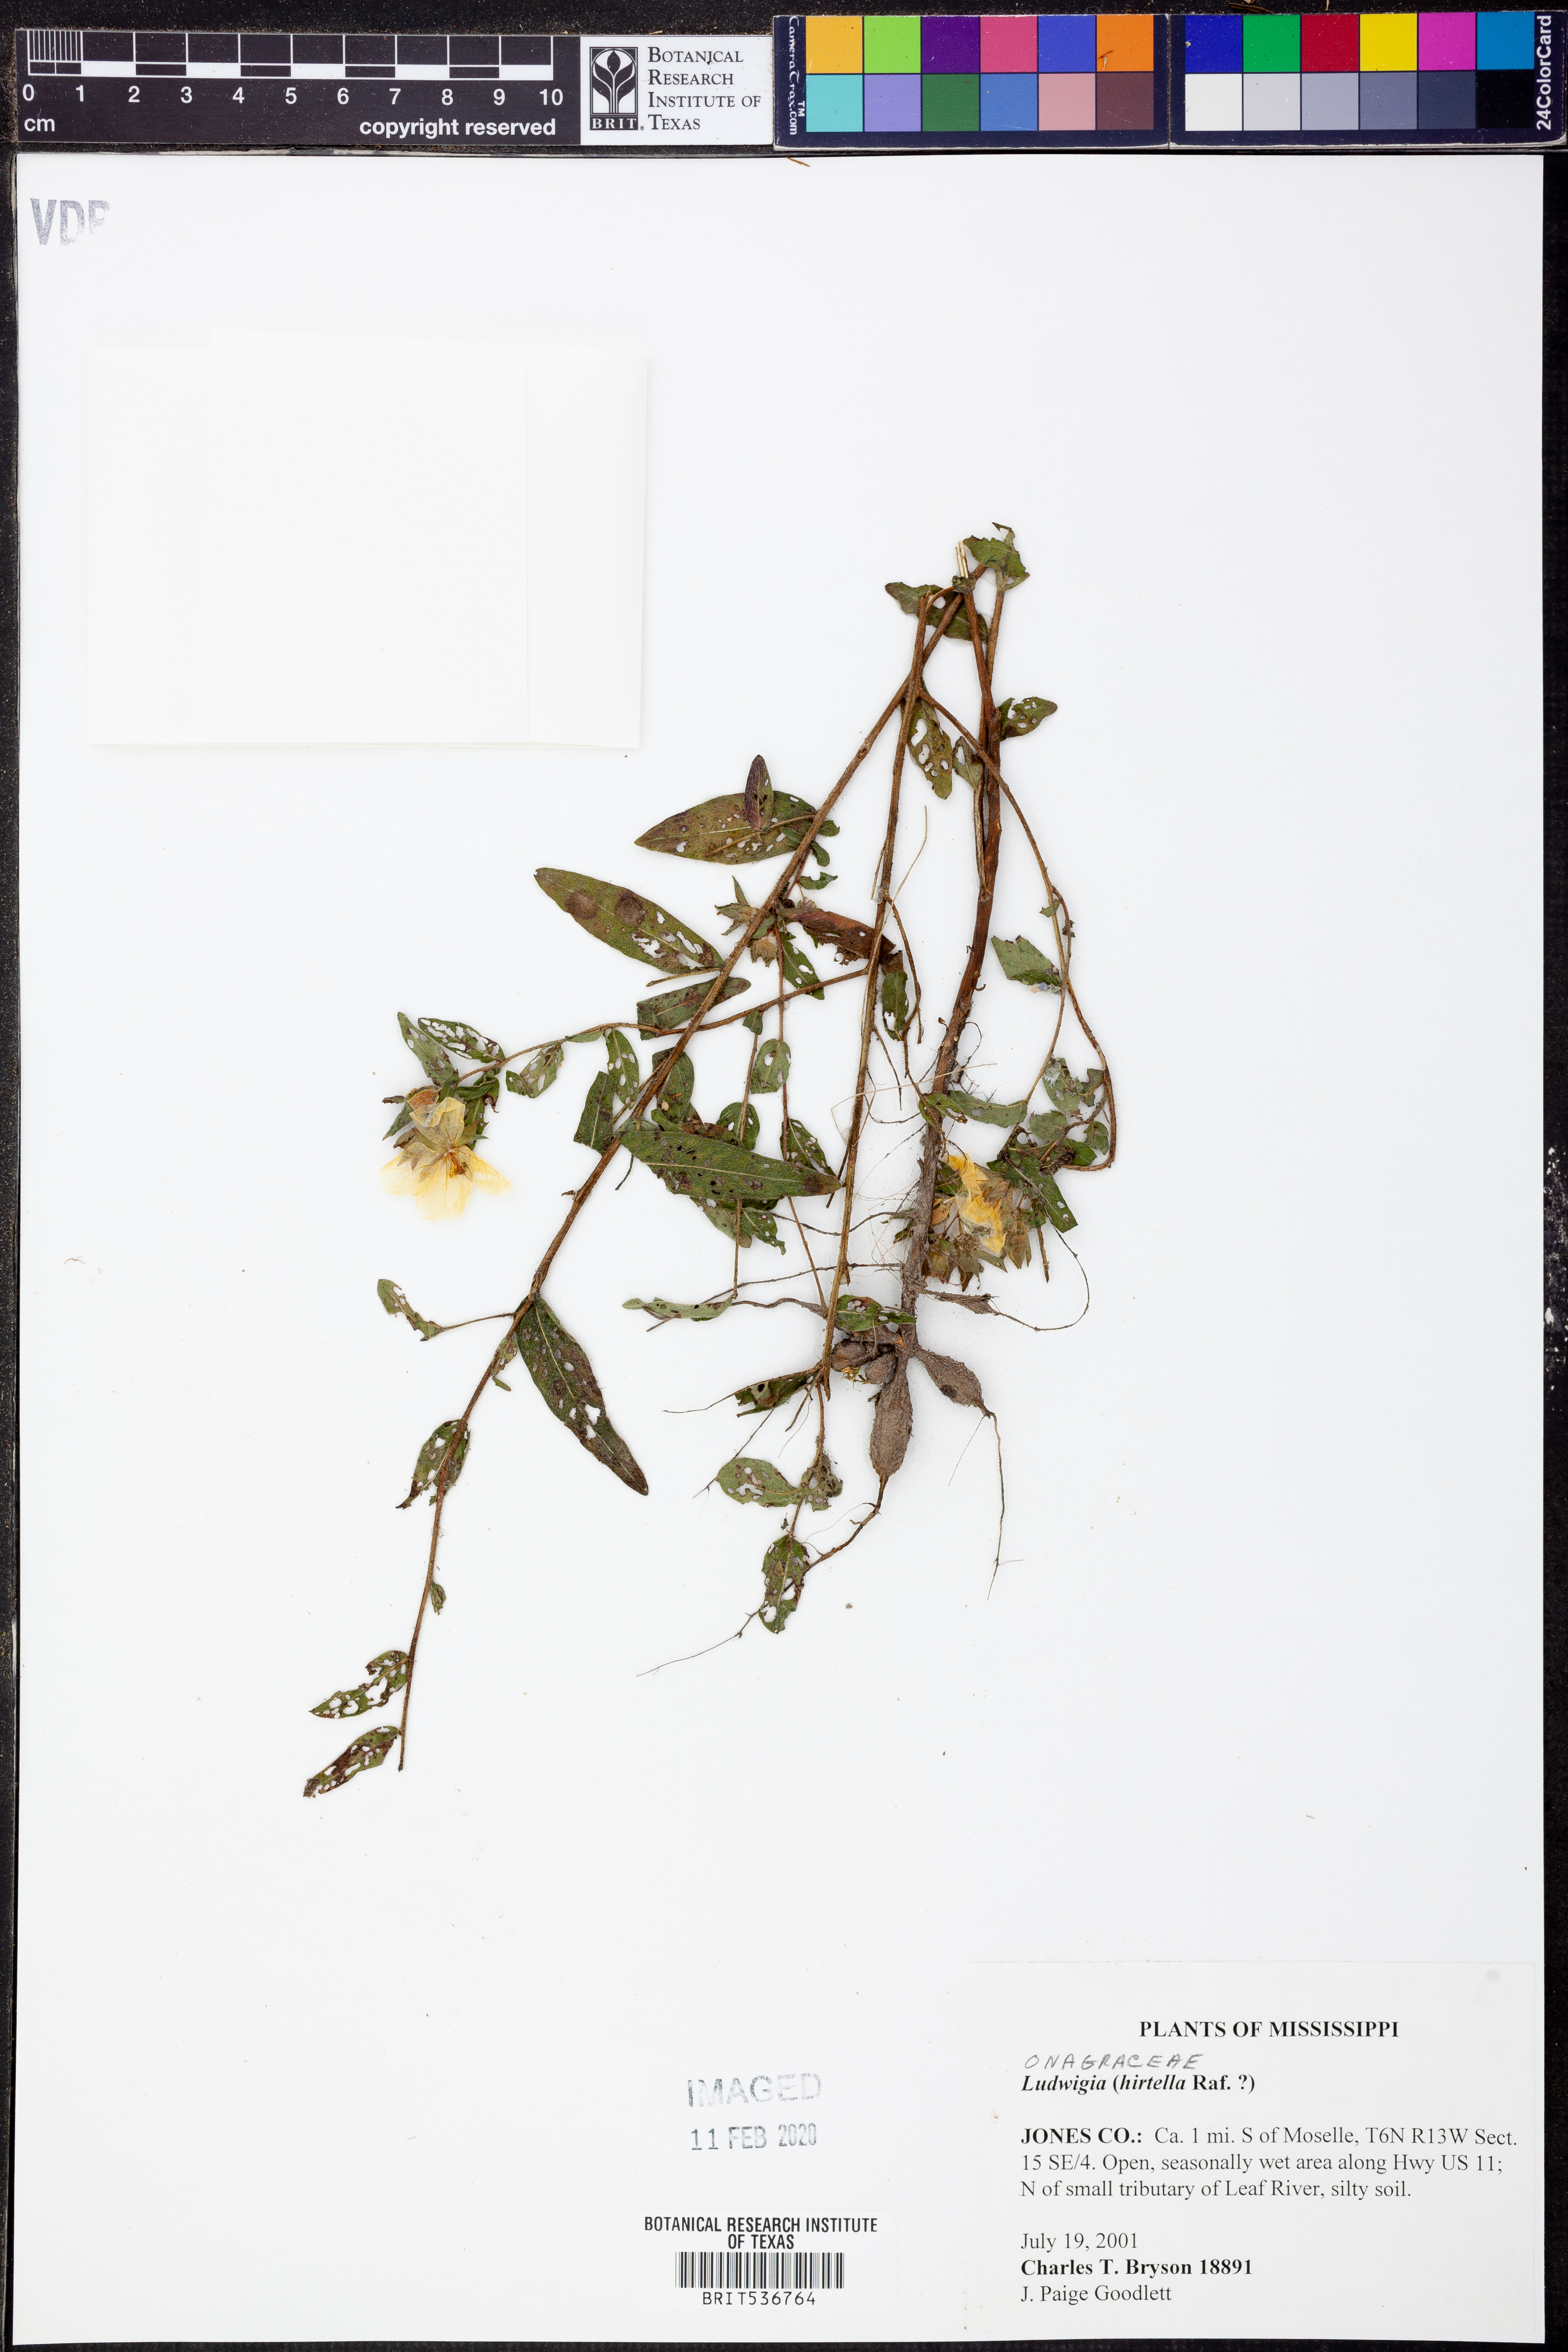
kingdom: Plantae
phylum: Tracheophyta
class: Magnoliopsida
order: Myrtales
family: Onagraceae
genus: Ludwigia
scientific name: Ludwigia hirtella
